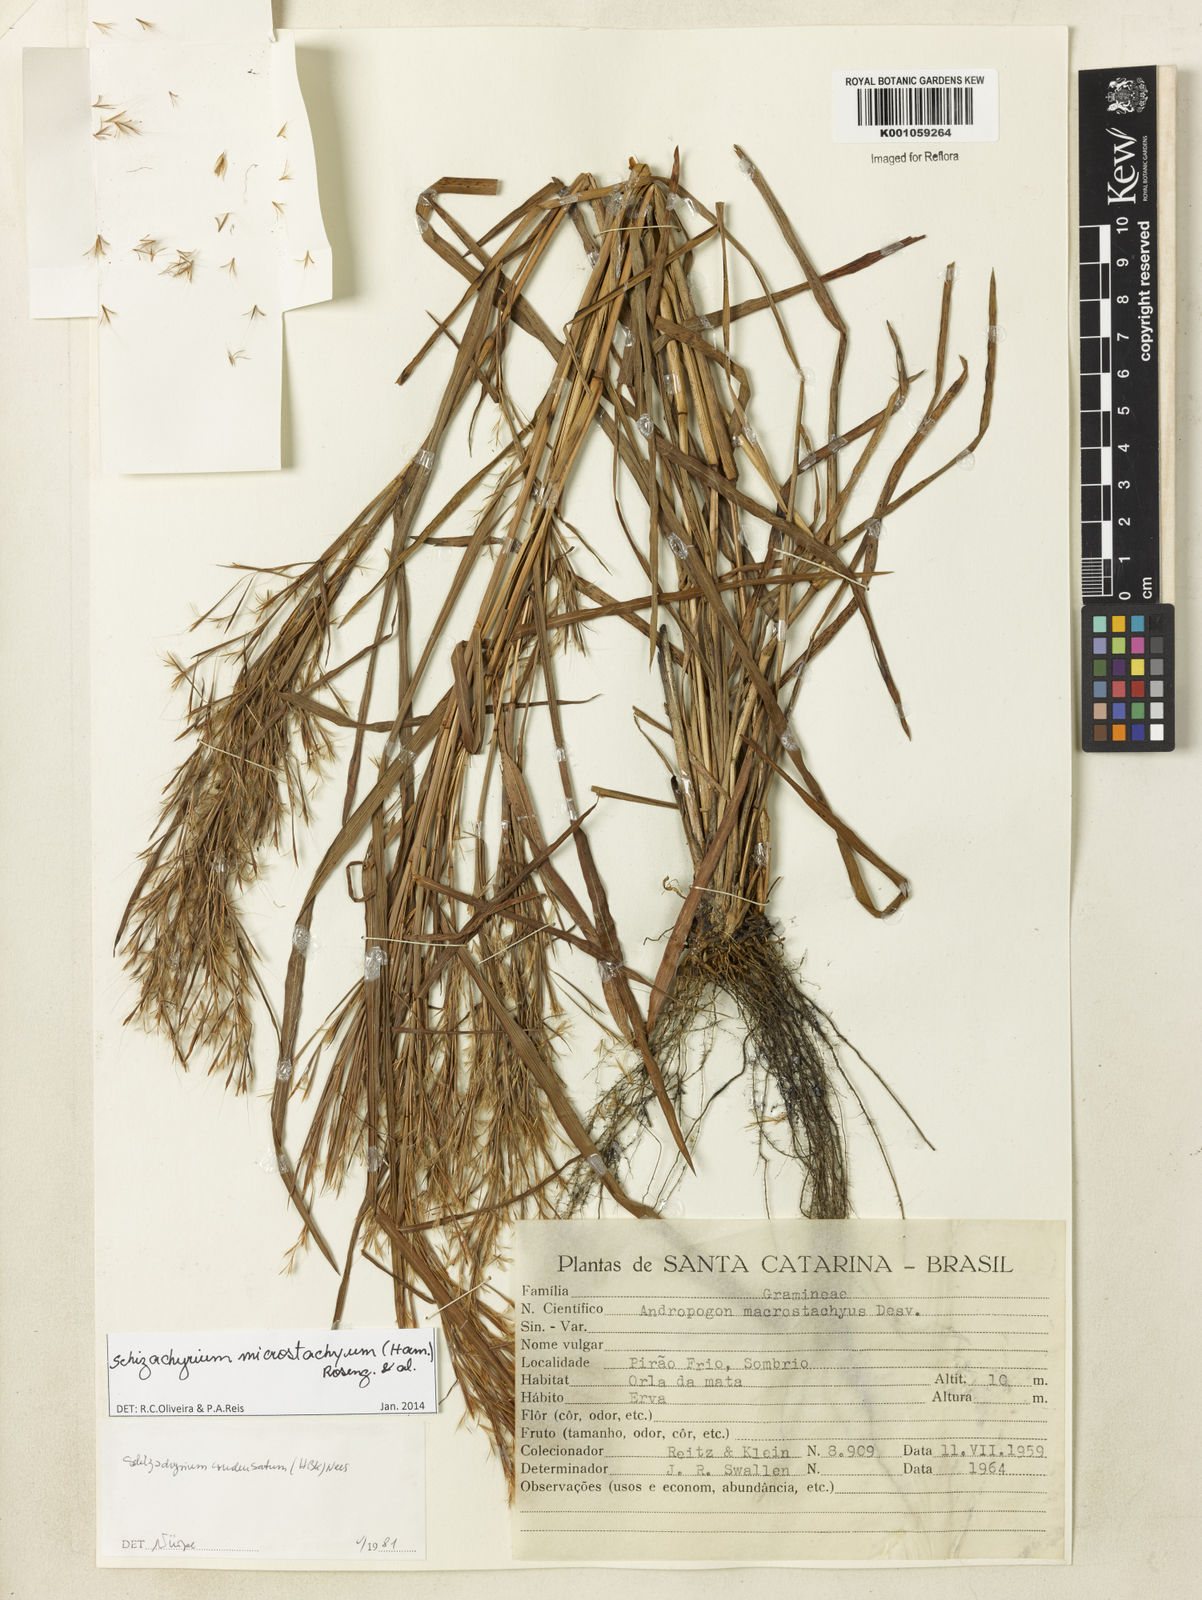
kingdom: Plantae
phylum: Tracheophyta
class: Liliopsida
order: Poales
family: Poaceae
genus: Schizachyrium
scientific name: Schizachyrium
